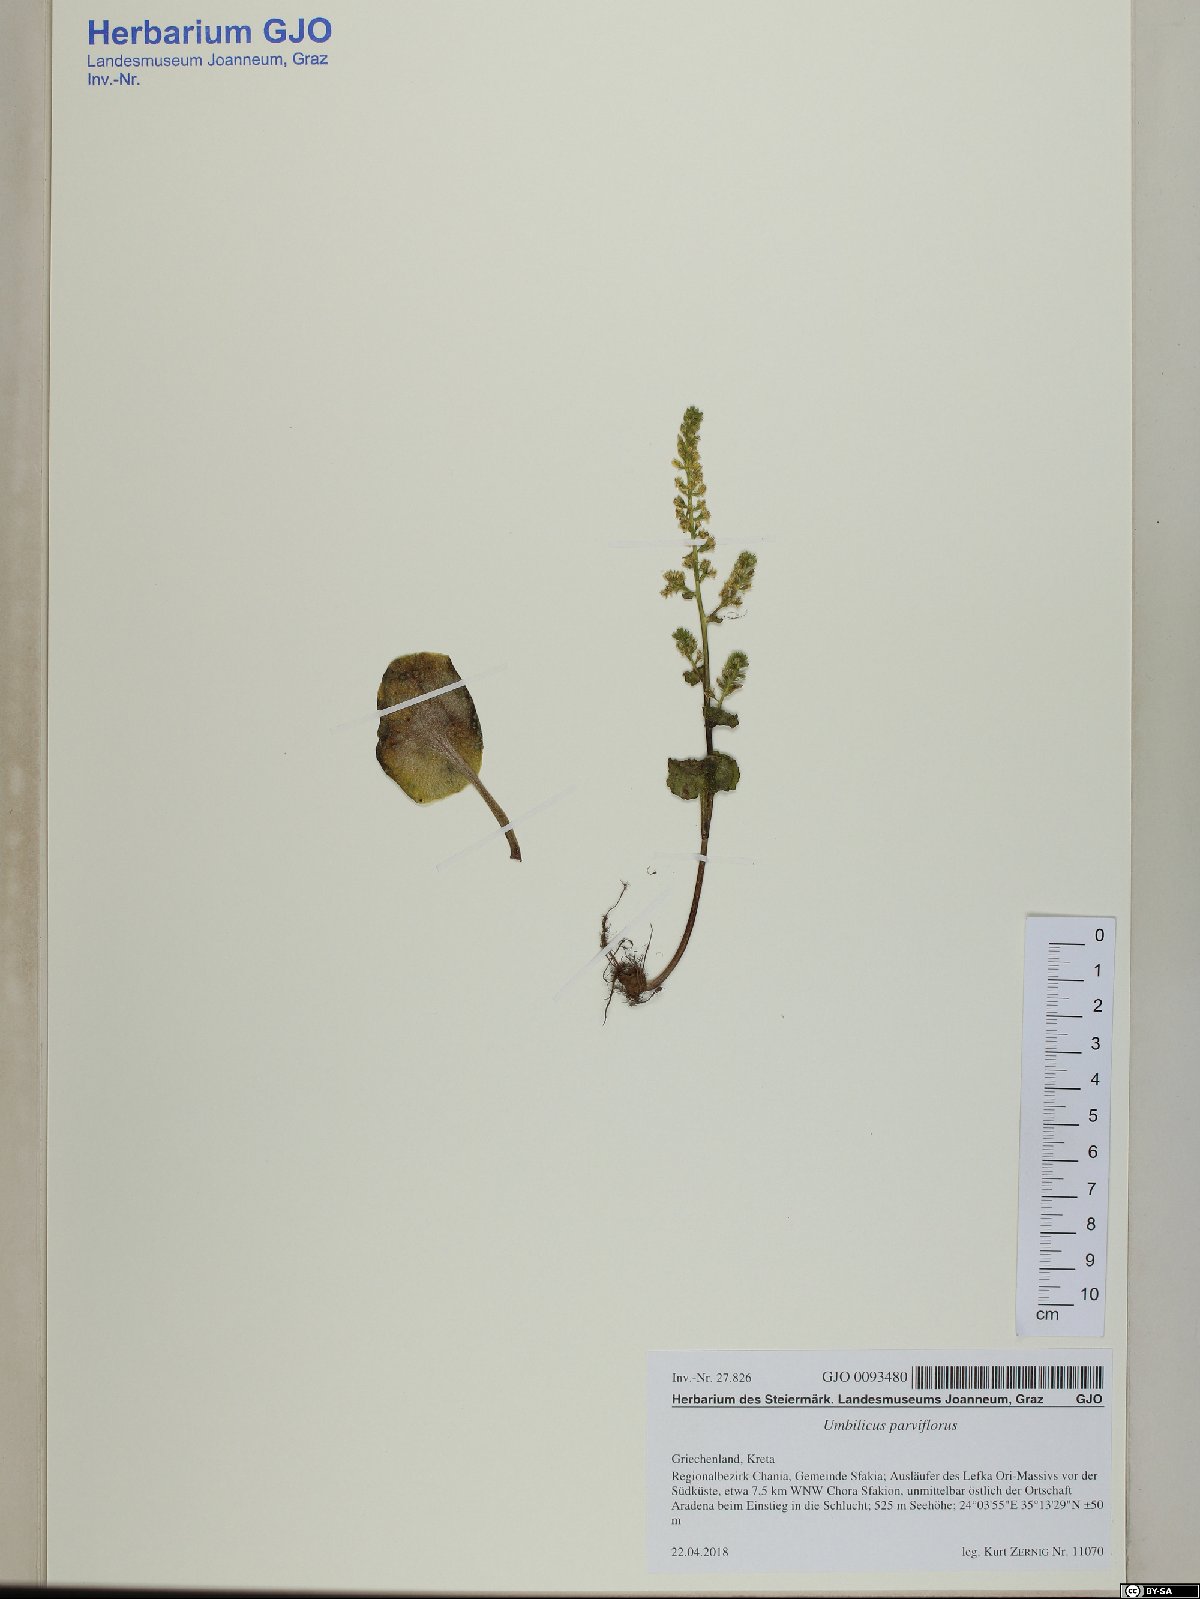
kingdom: Plantae
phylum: Tracheophyta
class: Magnoliopsida
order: Saxifragales
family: Crassulaceae
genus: Umbilicus
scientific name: Umbilicus parviflorus
